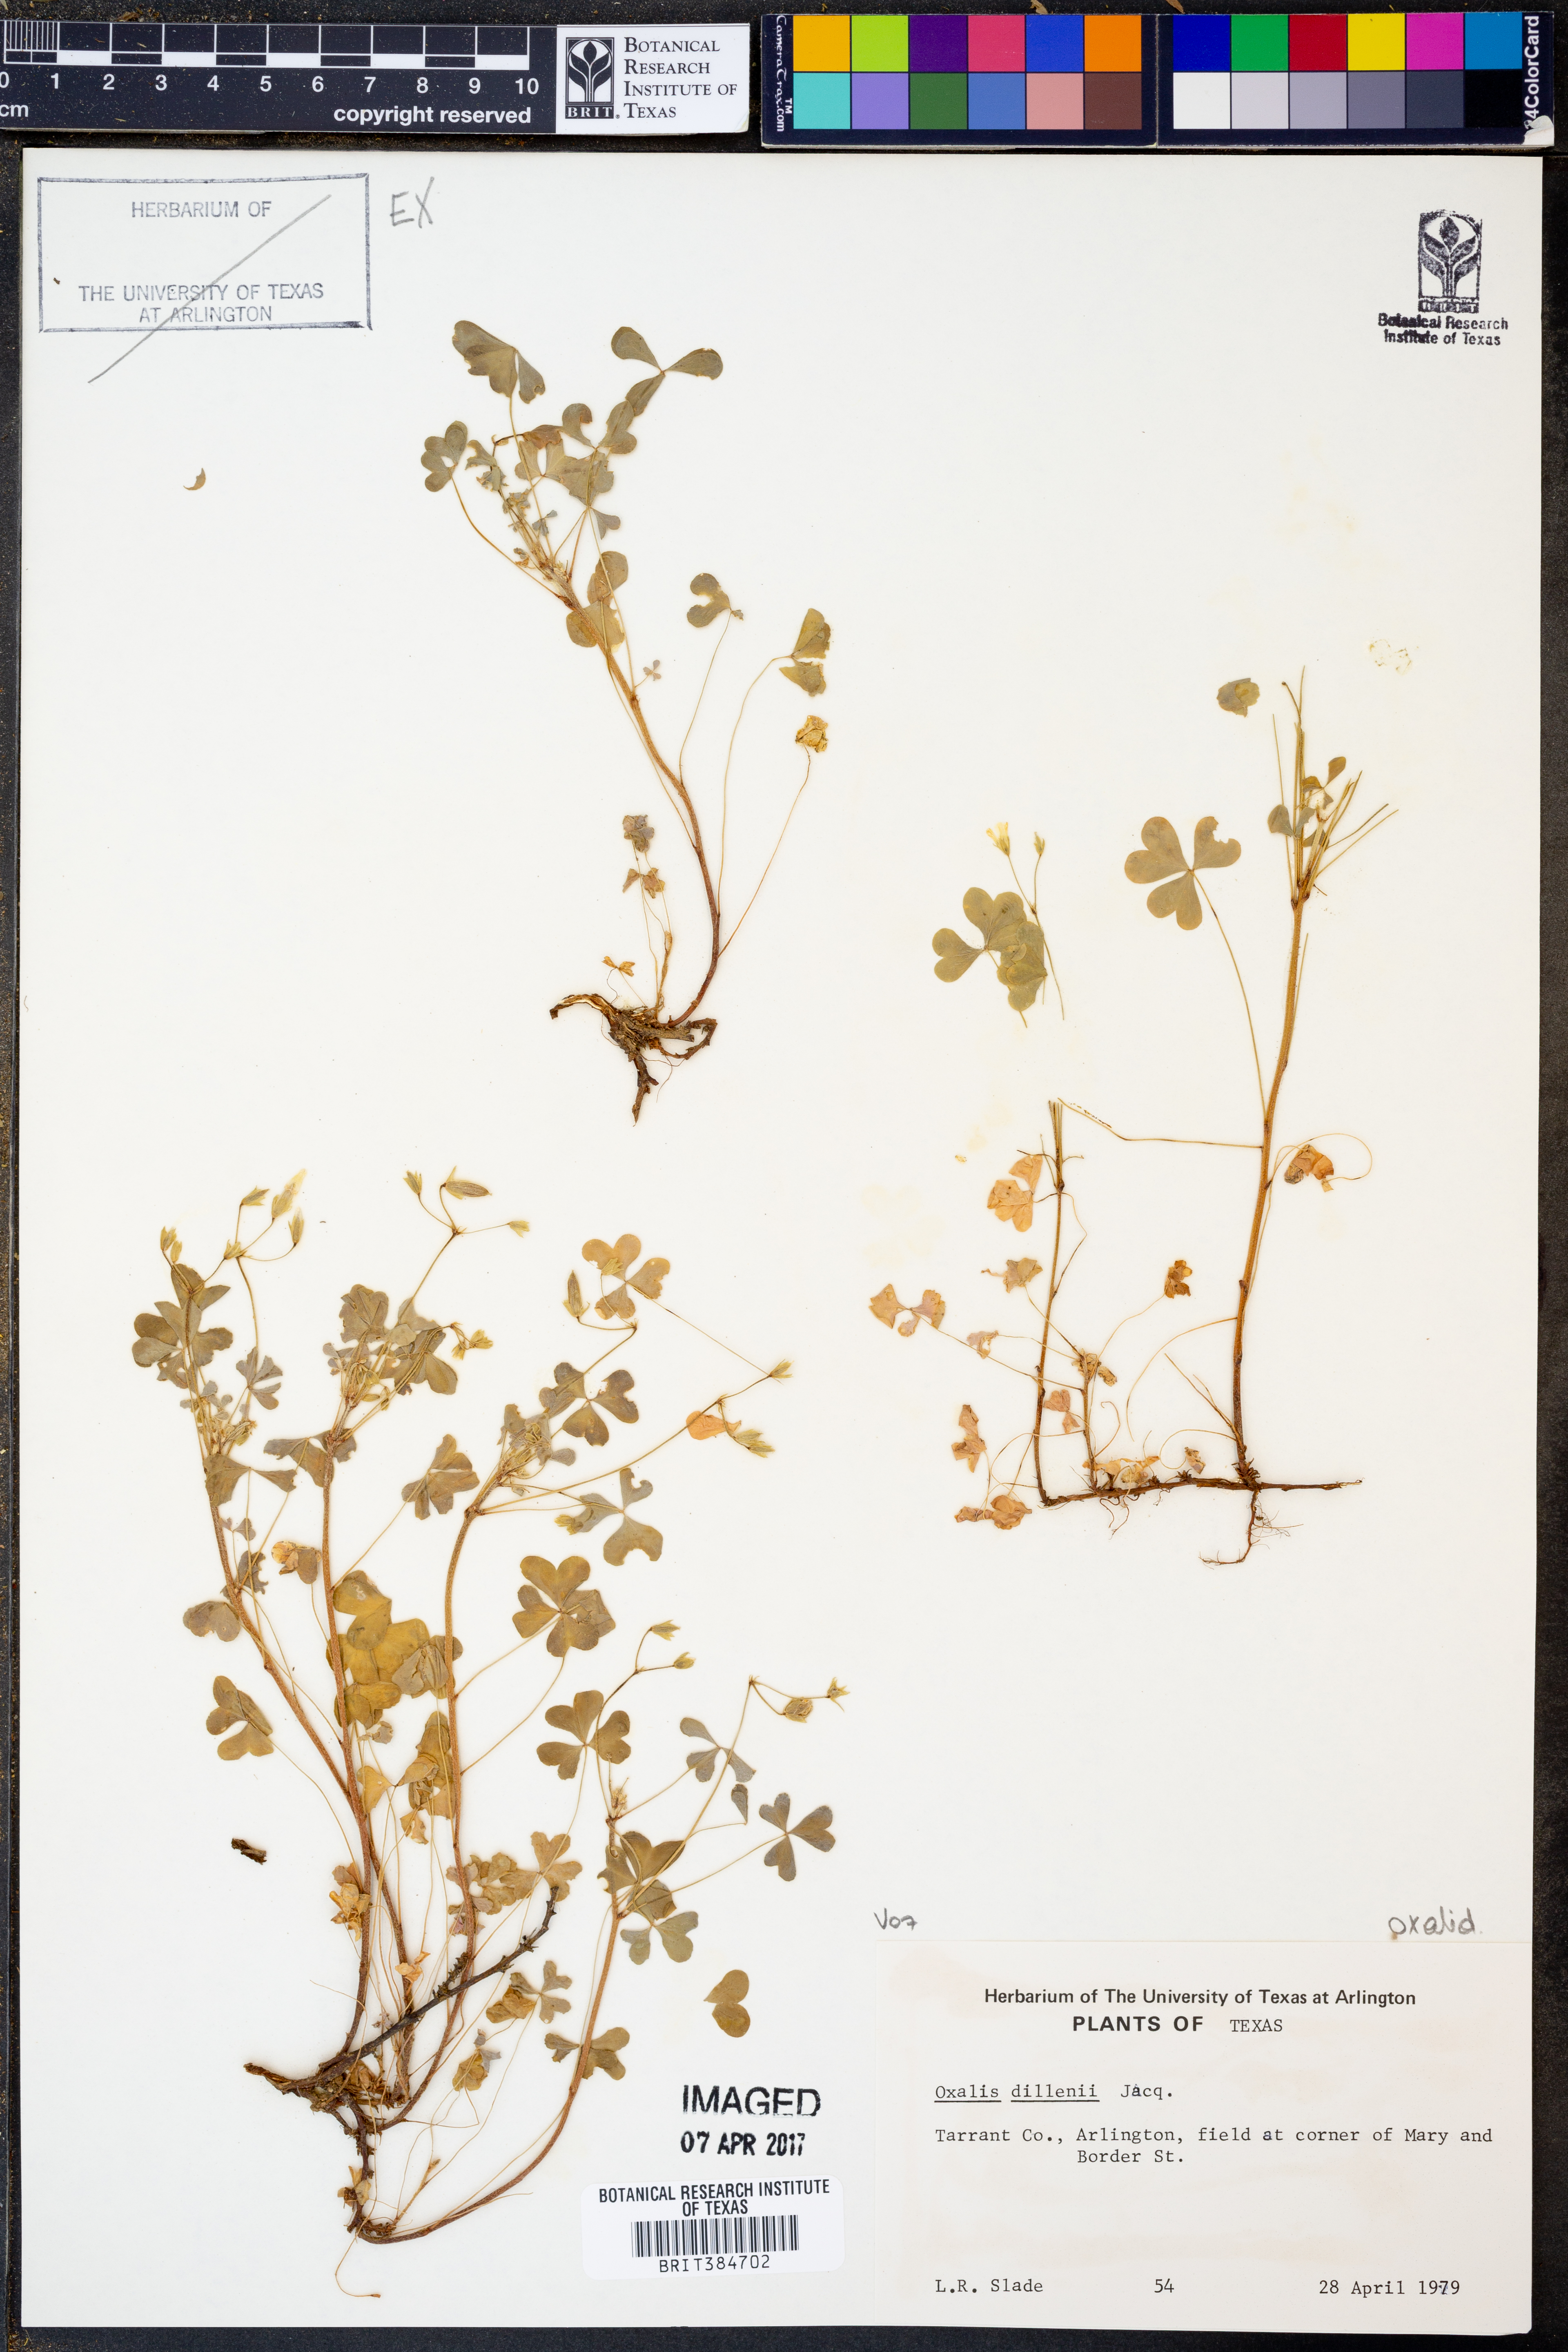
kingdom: Plantae
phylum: Tracheophyta
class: Magnoliopsida
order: Oxalidales
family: Oxalidaceae
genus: Oxalis
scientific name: Oxalis dillenii
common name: Sussex yellow-sorrel
